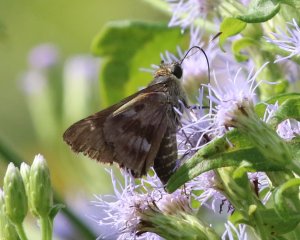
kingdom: Animalia
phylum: Arthropoda
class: Insecta
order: Lepidoptera
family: Hesperiidae
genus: Nyctelius
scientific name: Nyctelius nyctelius
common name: Violet-banded Skipper
